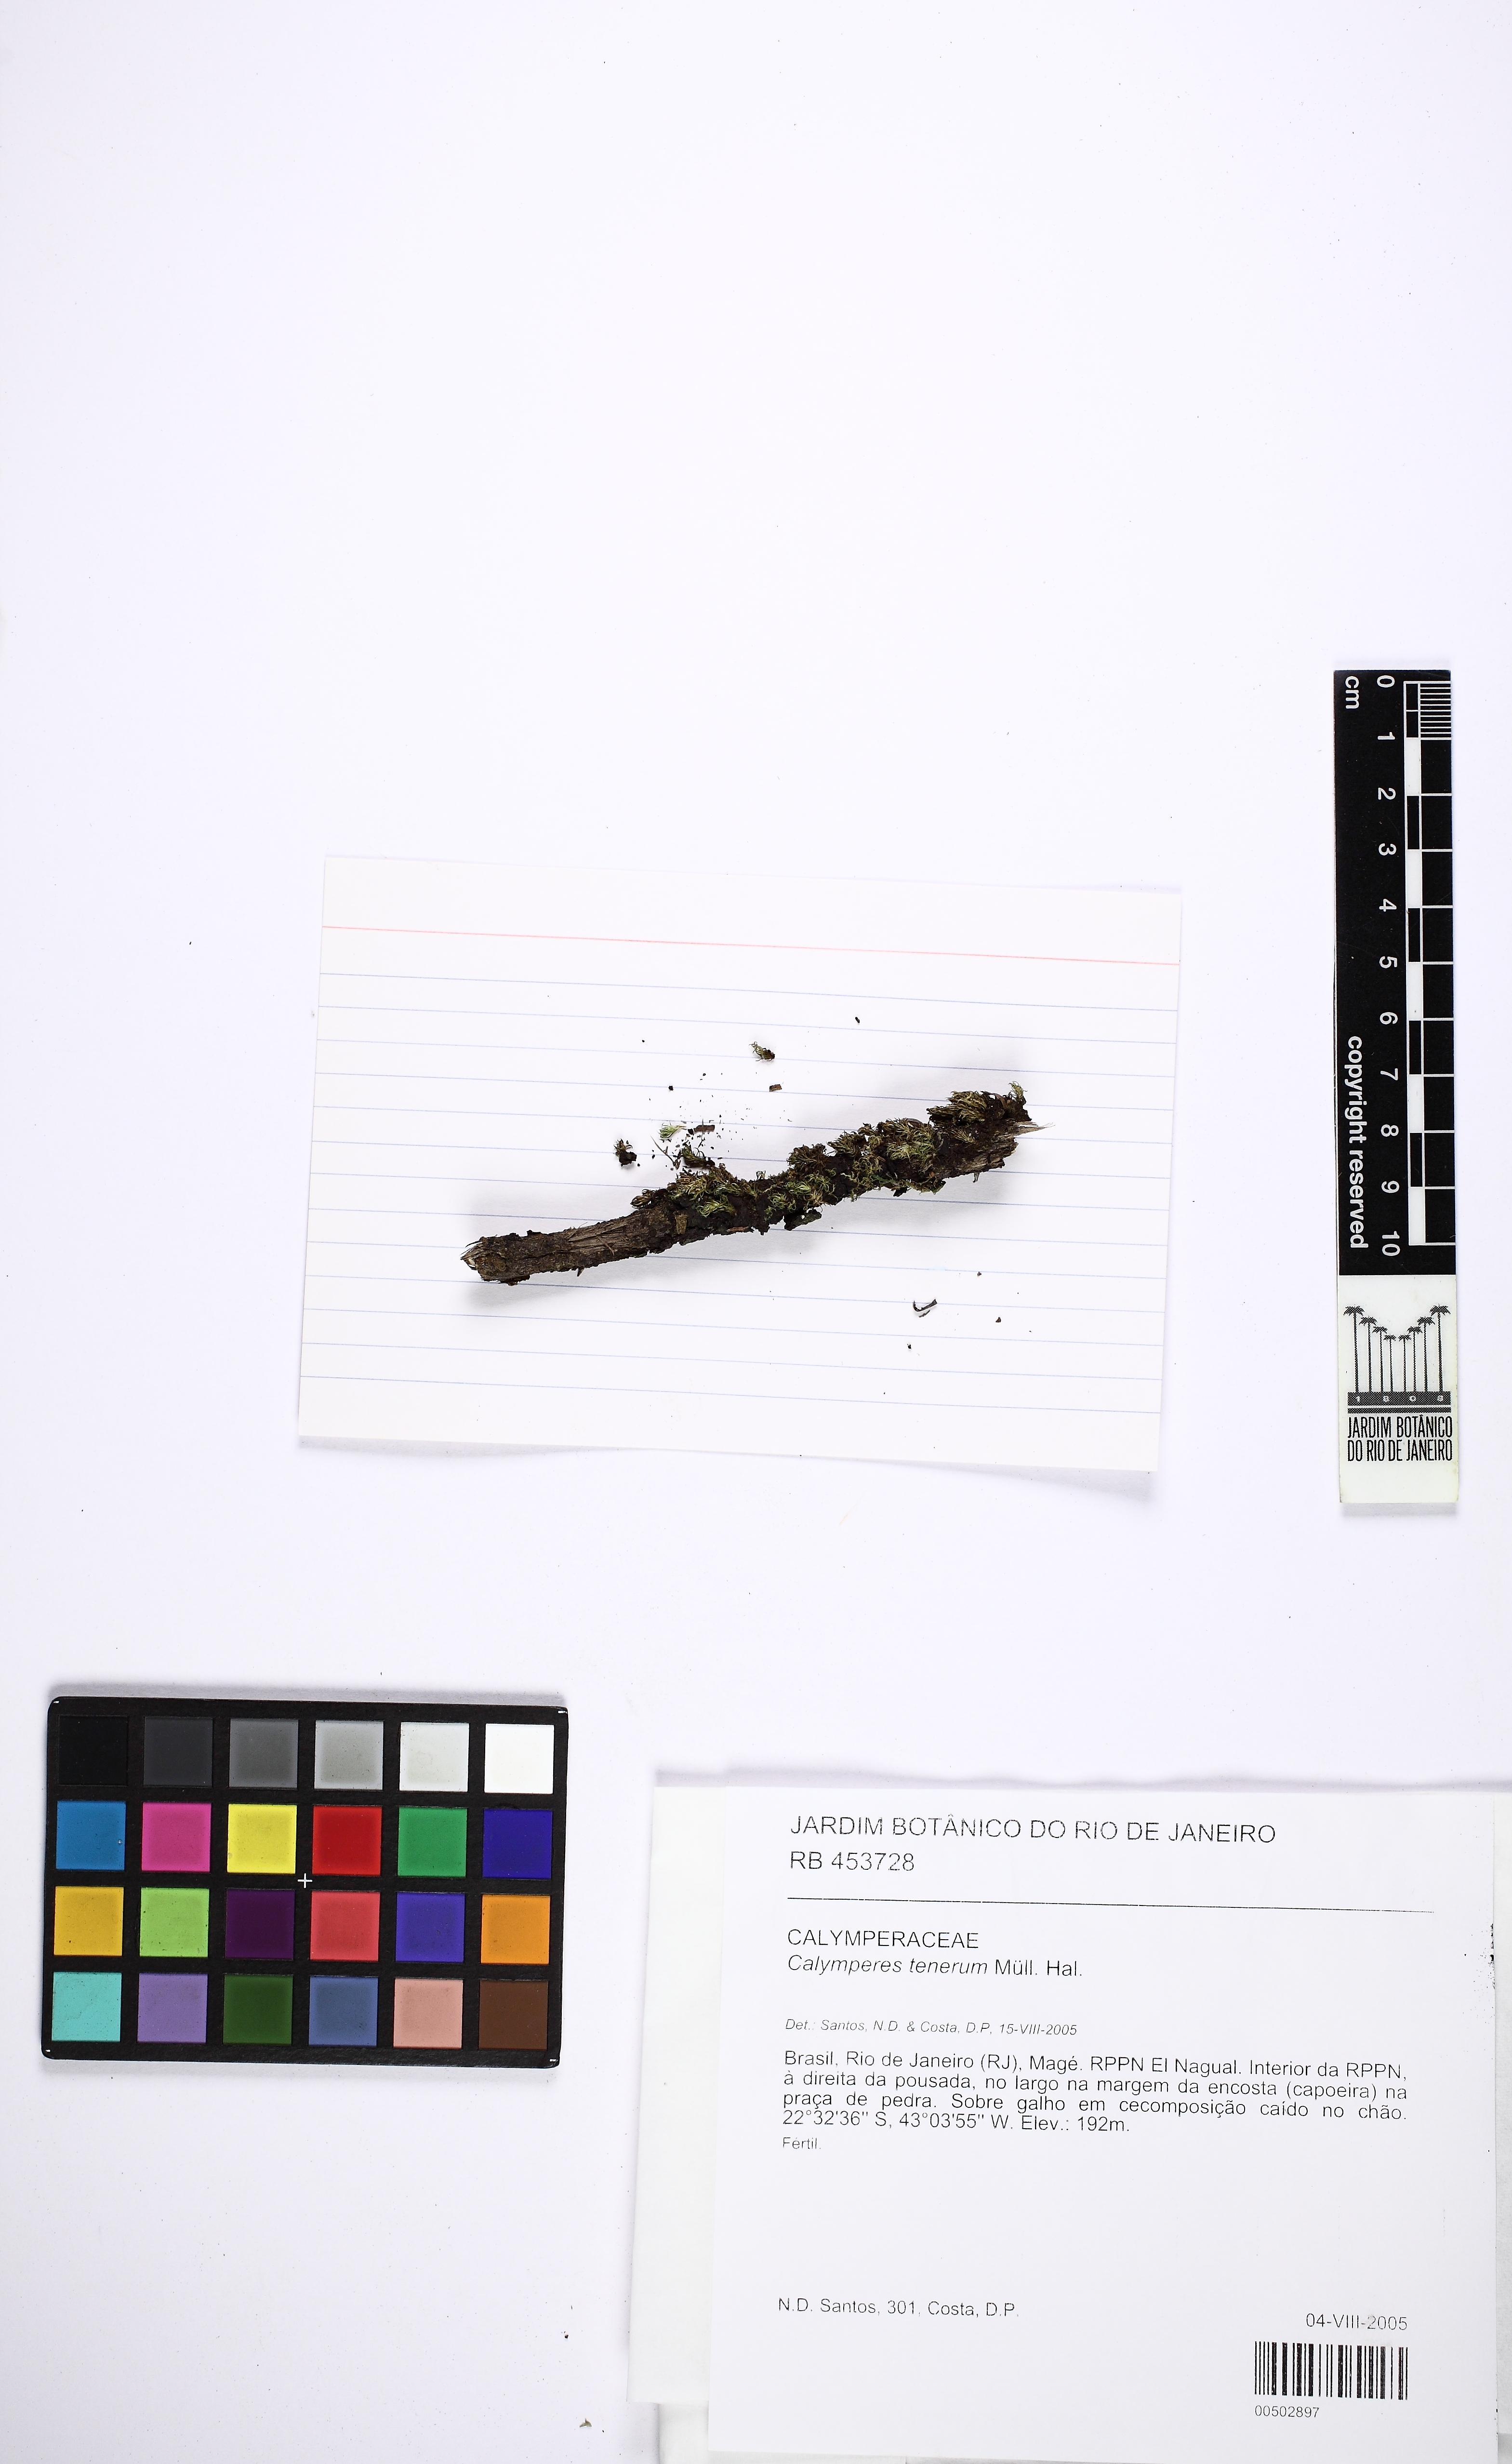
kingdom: Plantae
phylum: Bryophyta
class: Bryopsida
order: Dicranales
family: Calymperaceae
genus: Calymperes
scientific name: Calymperes tenerum
